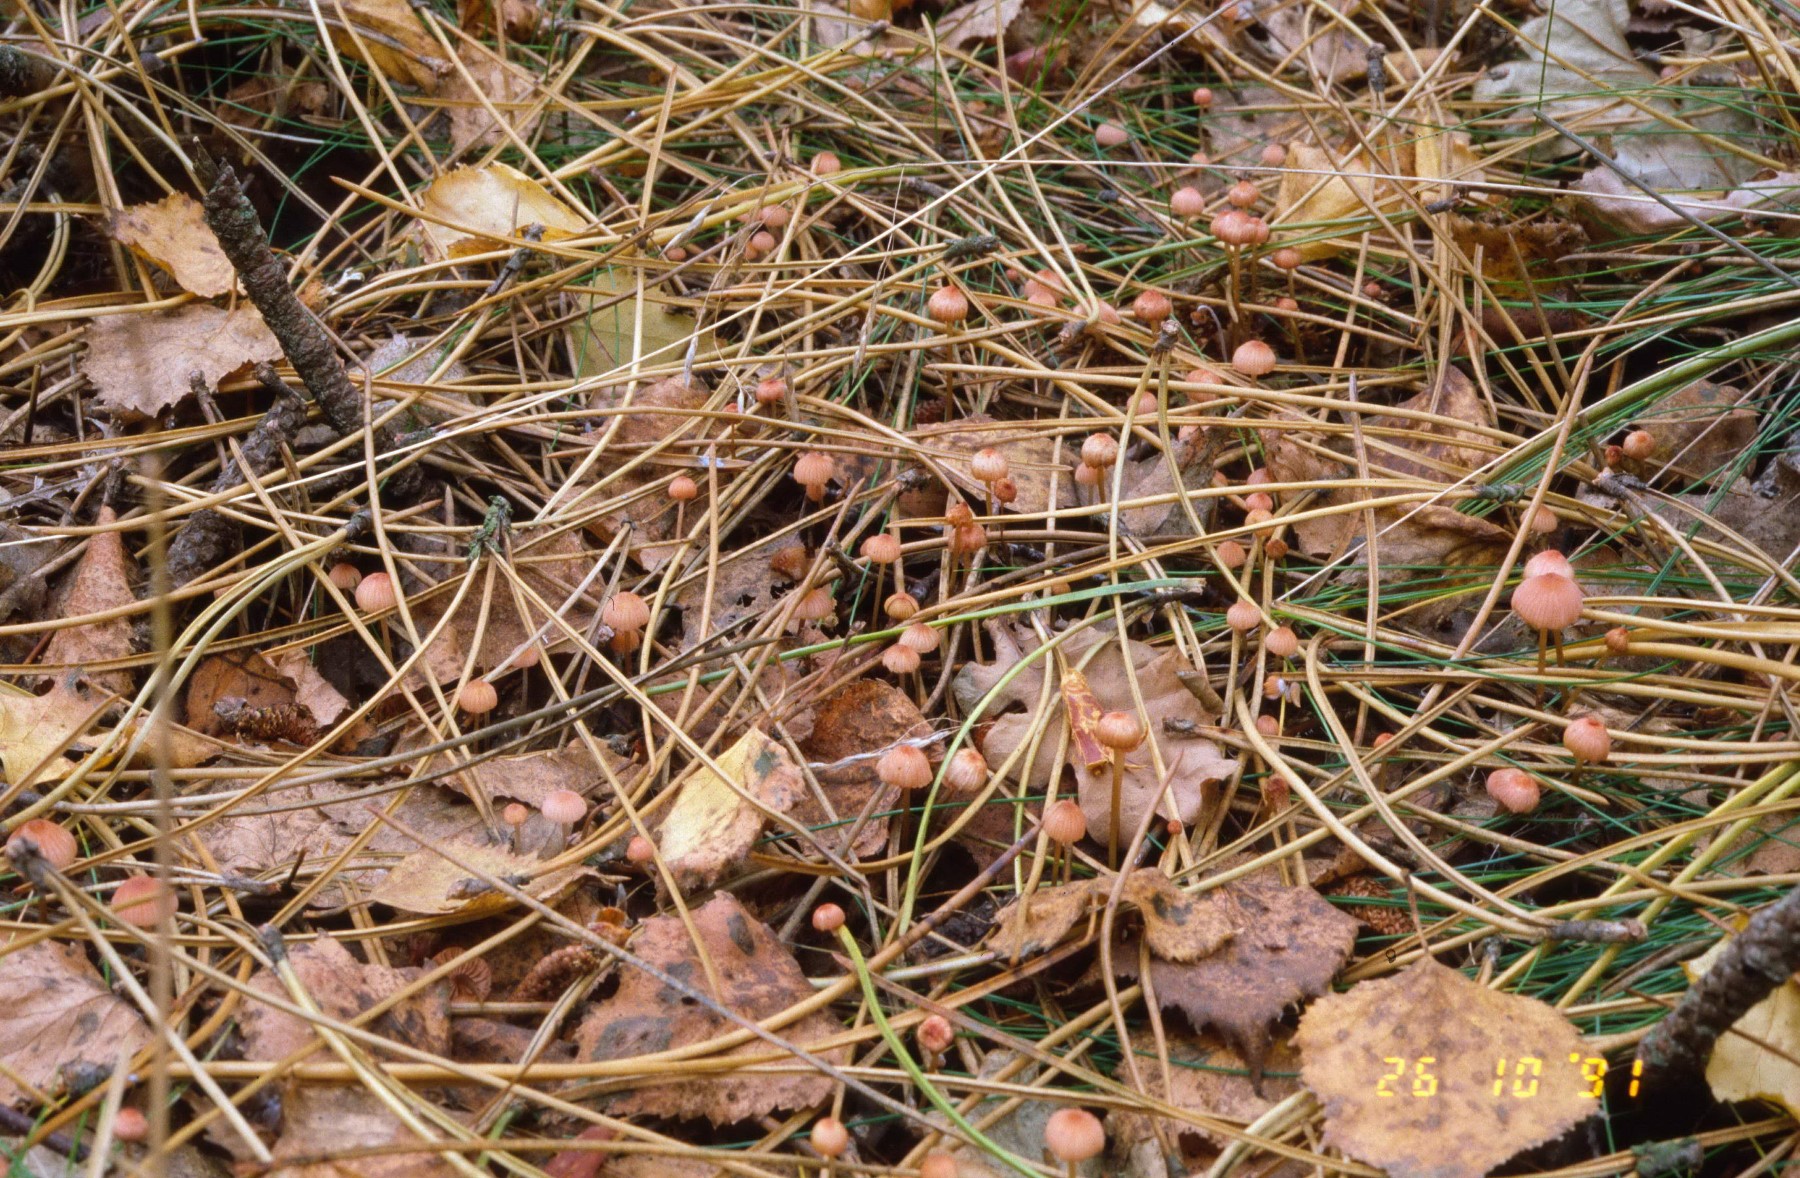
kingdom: Fungi
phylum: Basidiomycota
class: Agaricomycetes
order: Agaricales
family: Mycenaceae
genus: Mycena
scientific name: Mycena rosella
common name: rosenrød huesvamp
